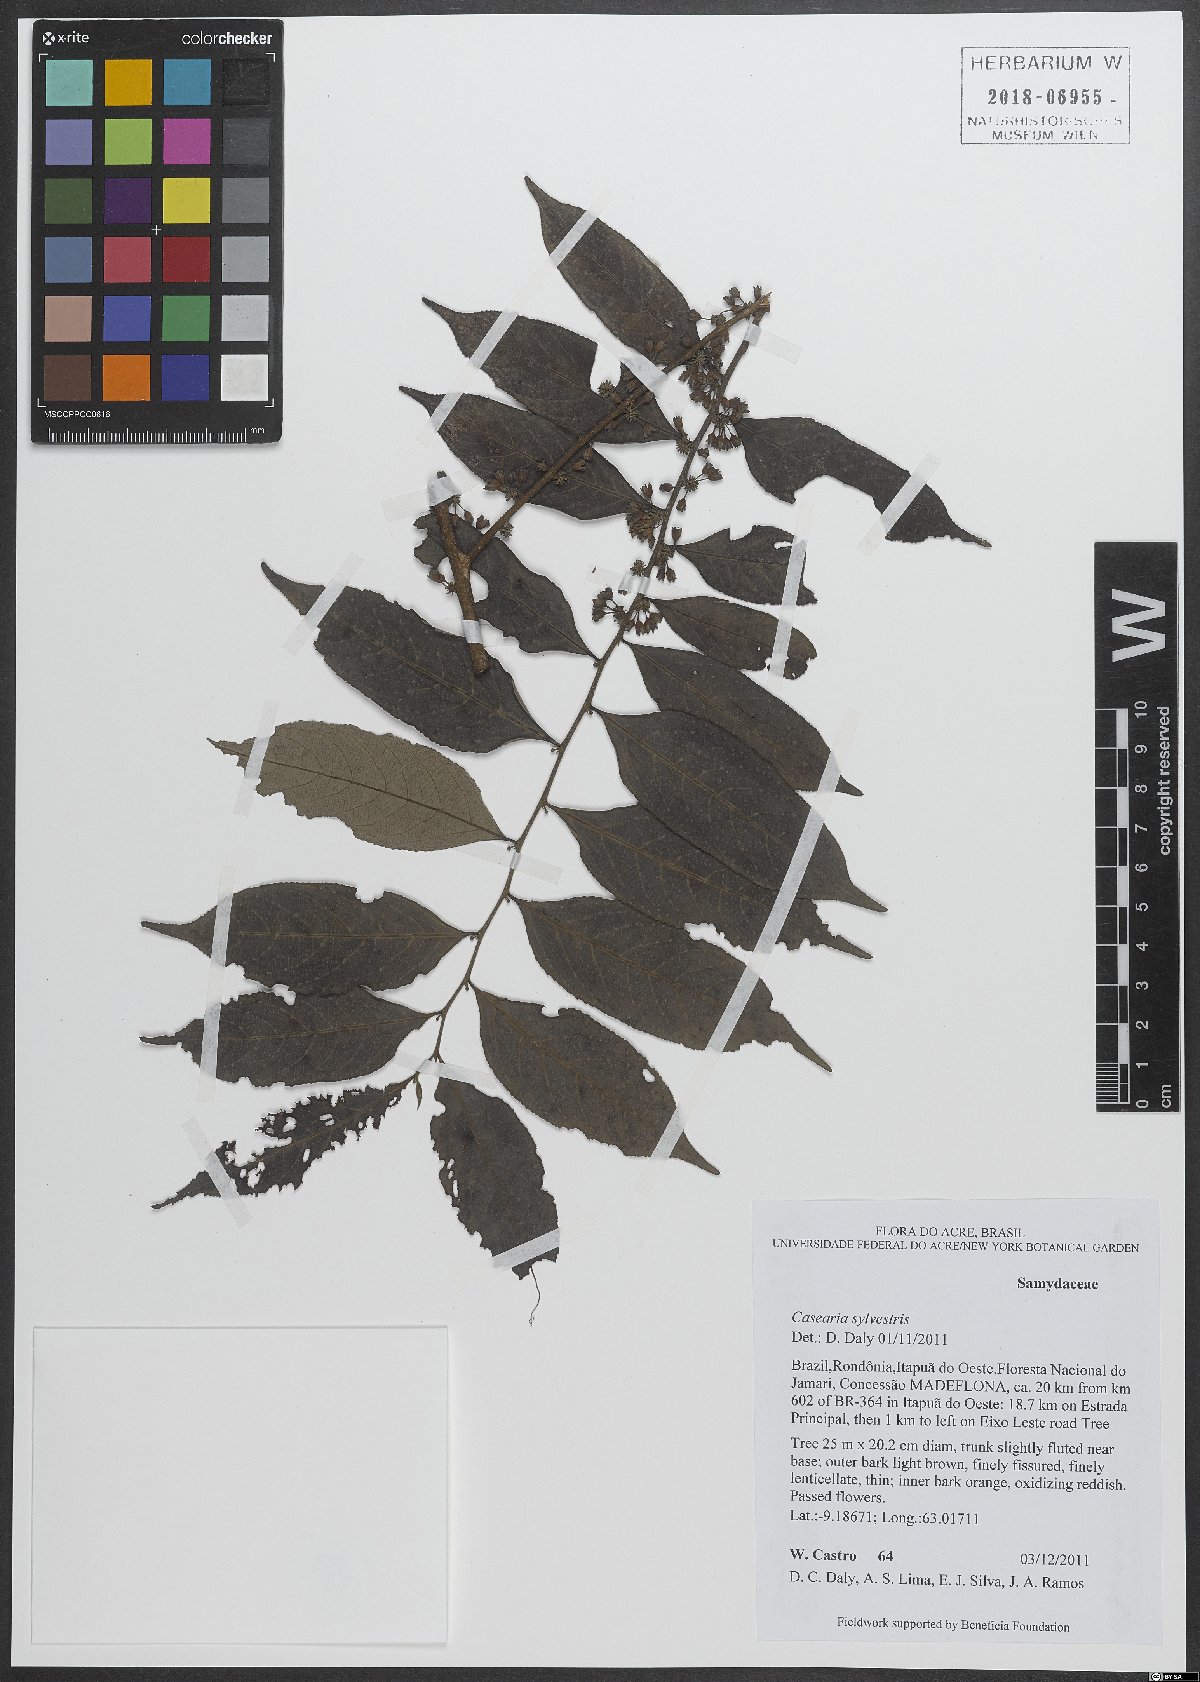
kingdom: Plantae
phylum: Tracheophyta
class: Magnoliopsida
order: Malpighiales
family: Salicaceae
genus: Casearia
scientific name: Casearia sylvestris
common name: Wild sage
